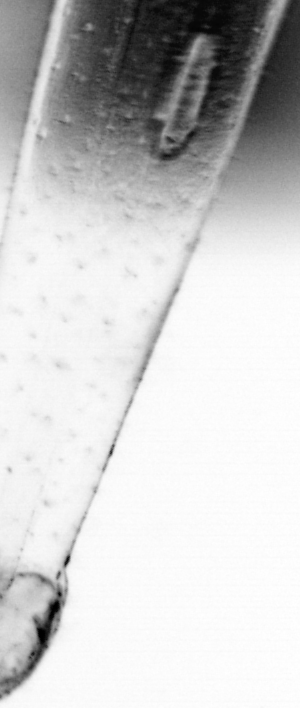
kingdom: Animalia
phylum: Chaetognatha
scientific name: Chaetognatha
